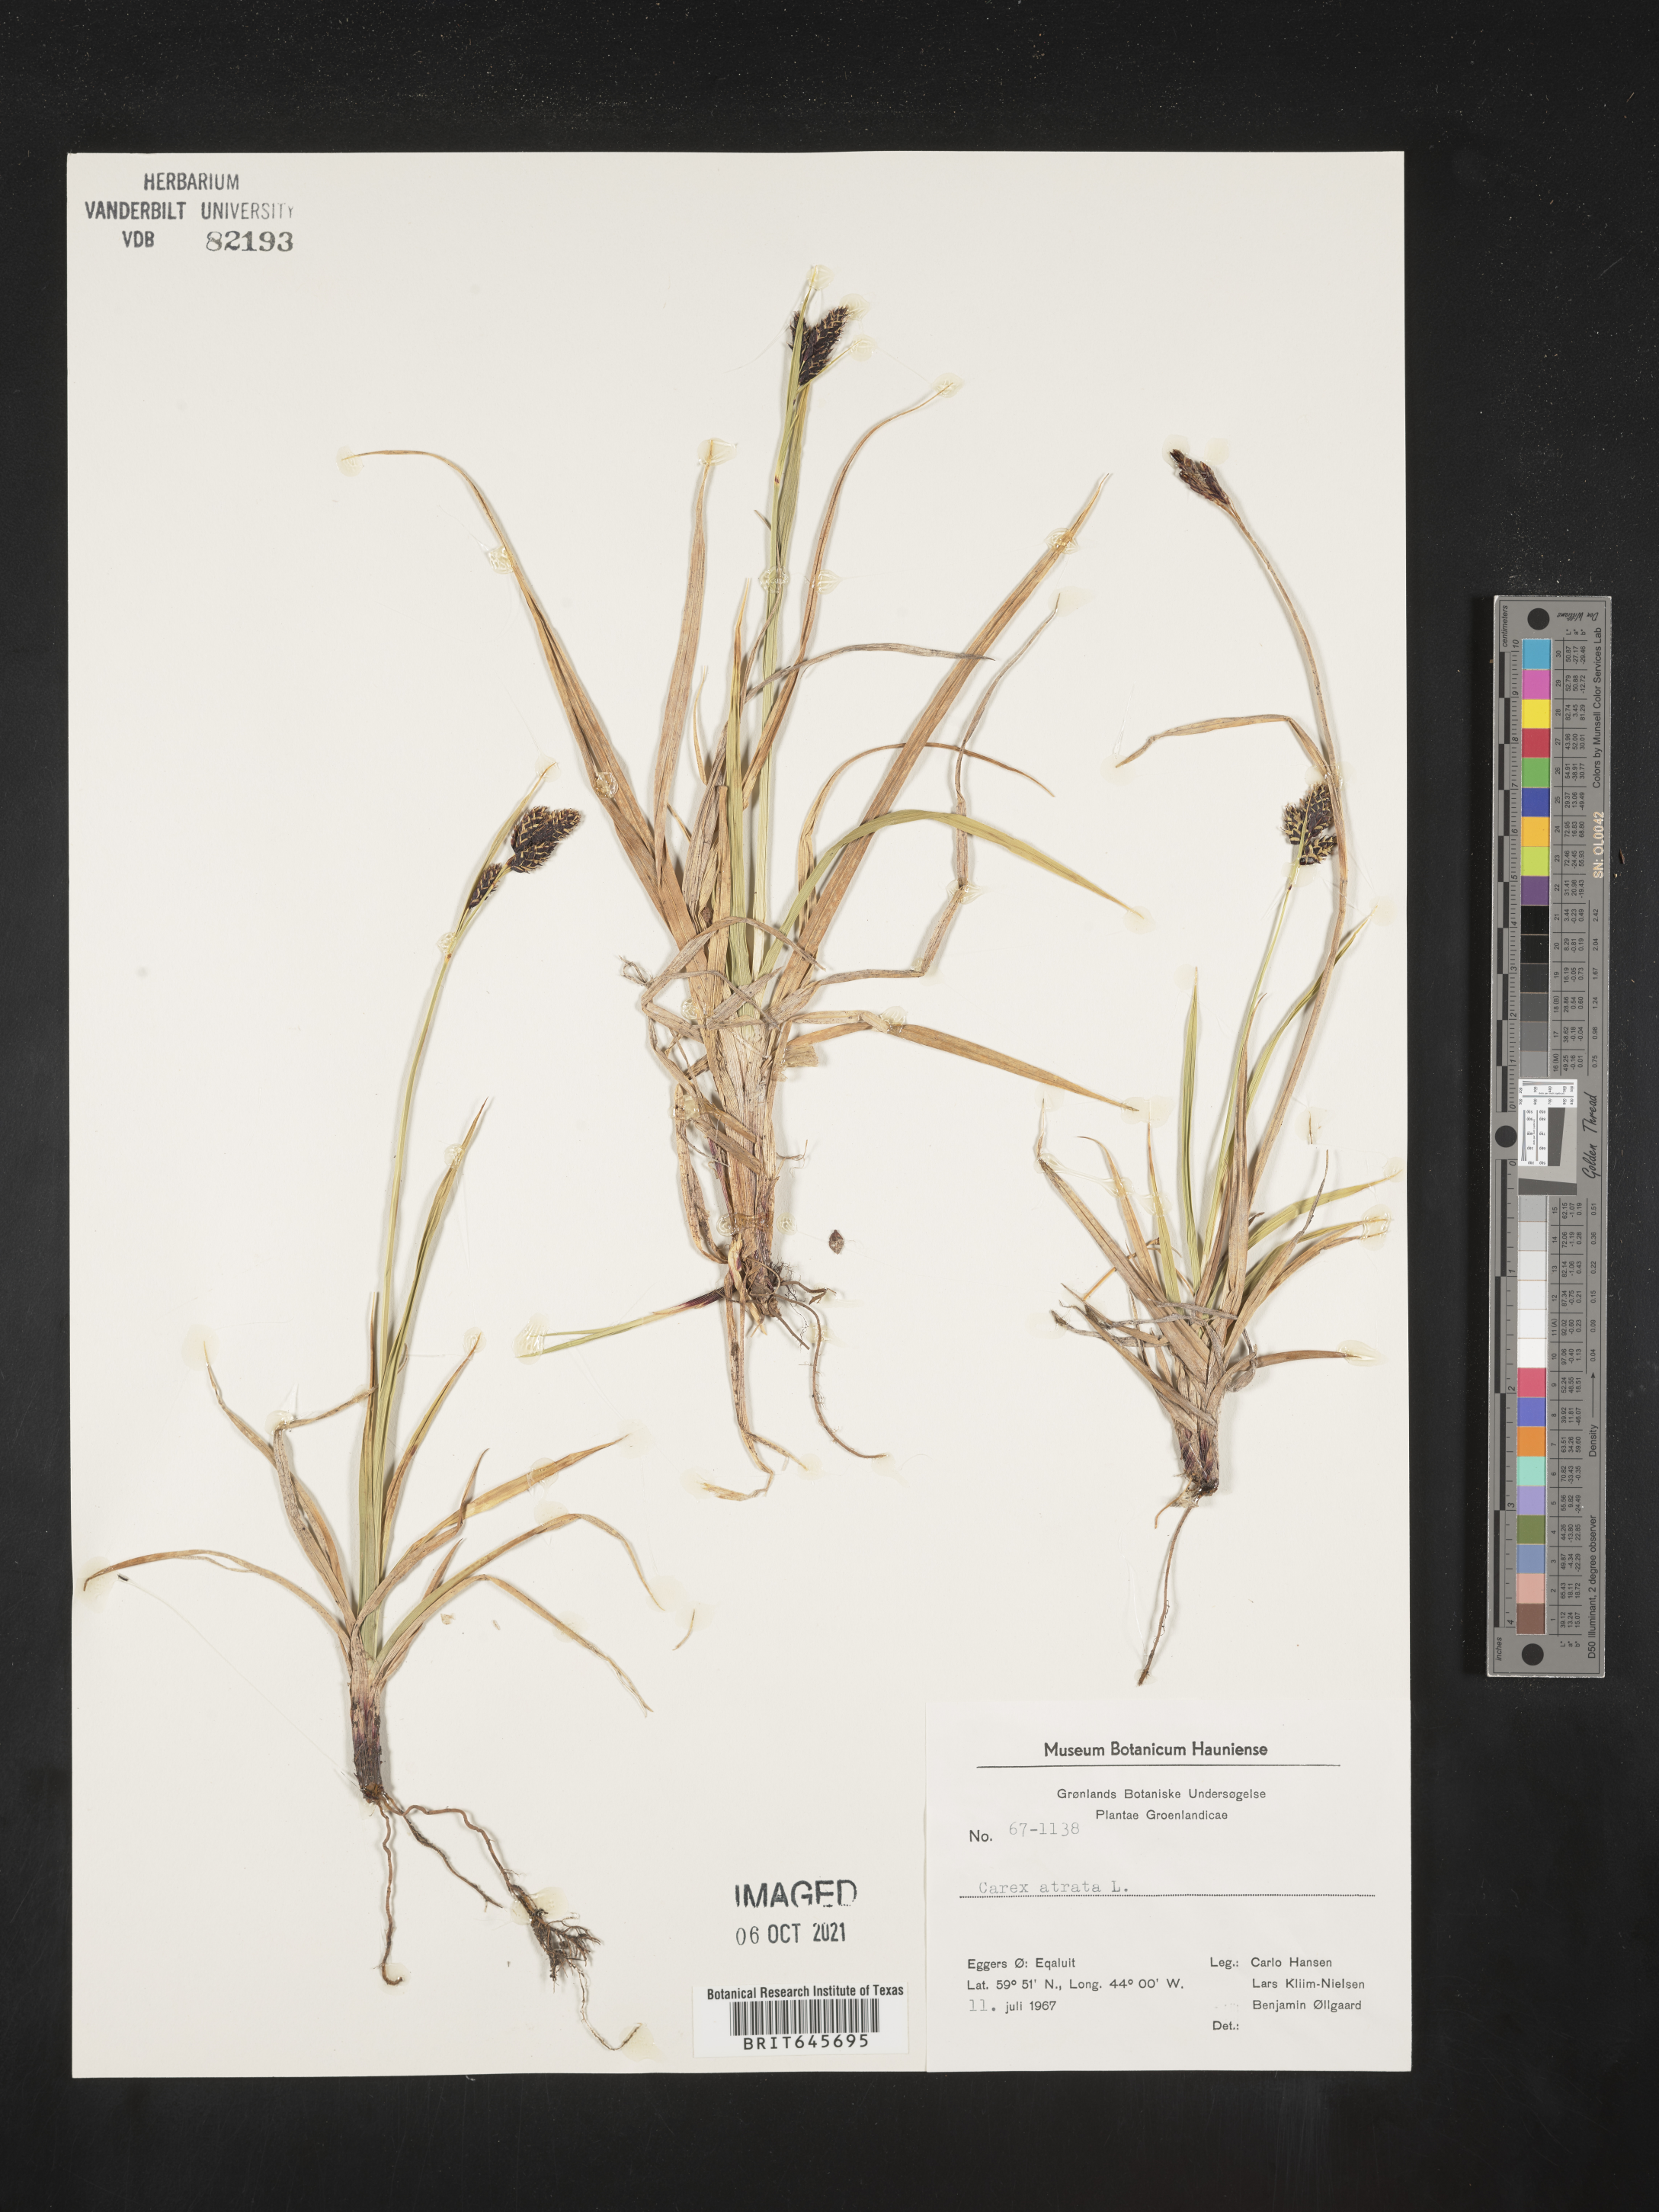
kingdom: Plantae
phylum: Tracheophyta
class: Liliopsida
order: Poales
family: Cyperaceae
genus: Carex
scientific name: Carex atrata
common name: Black alpine sedge
